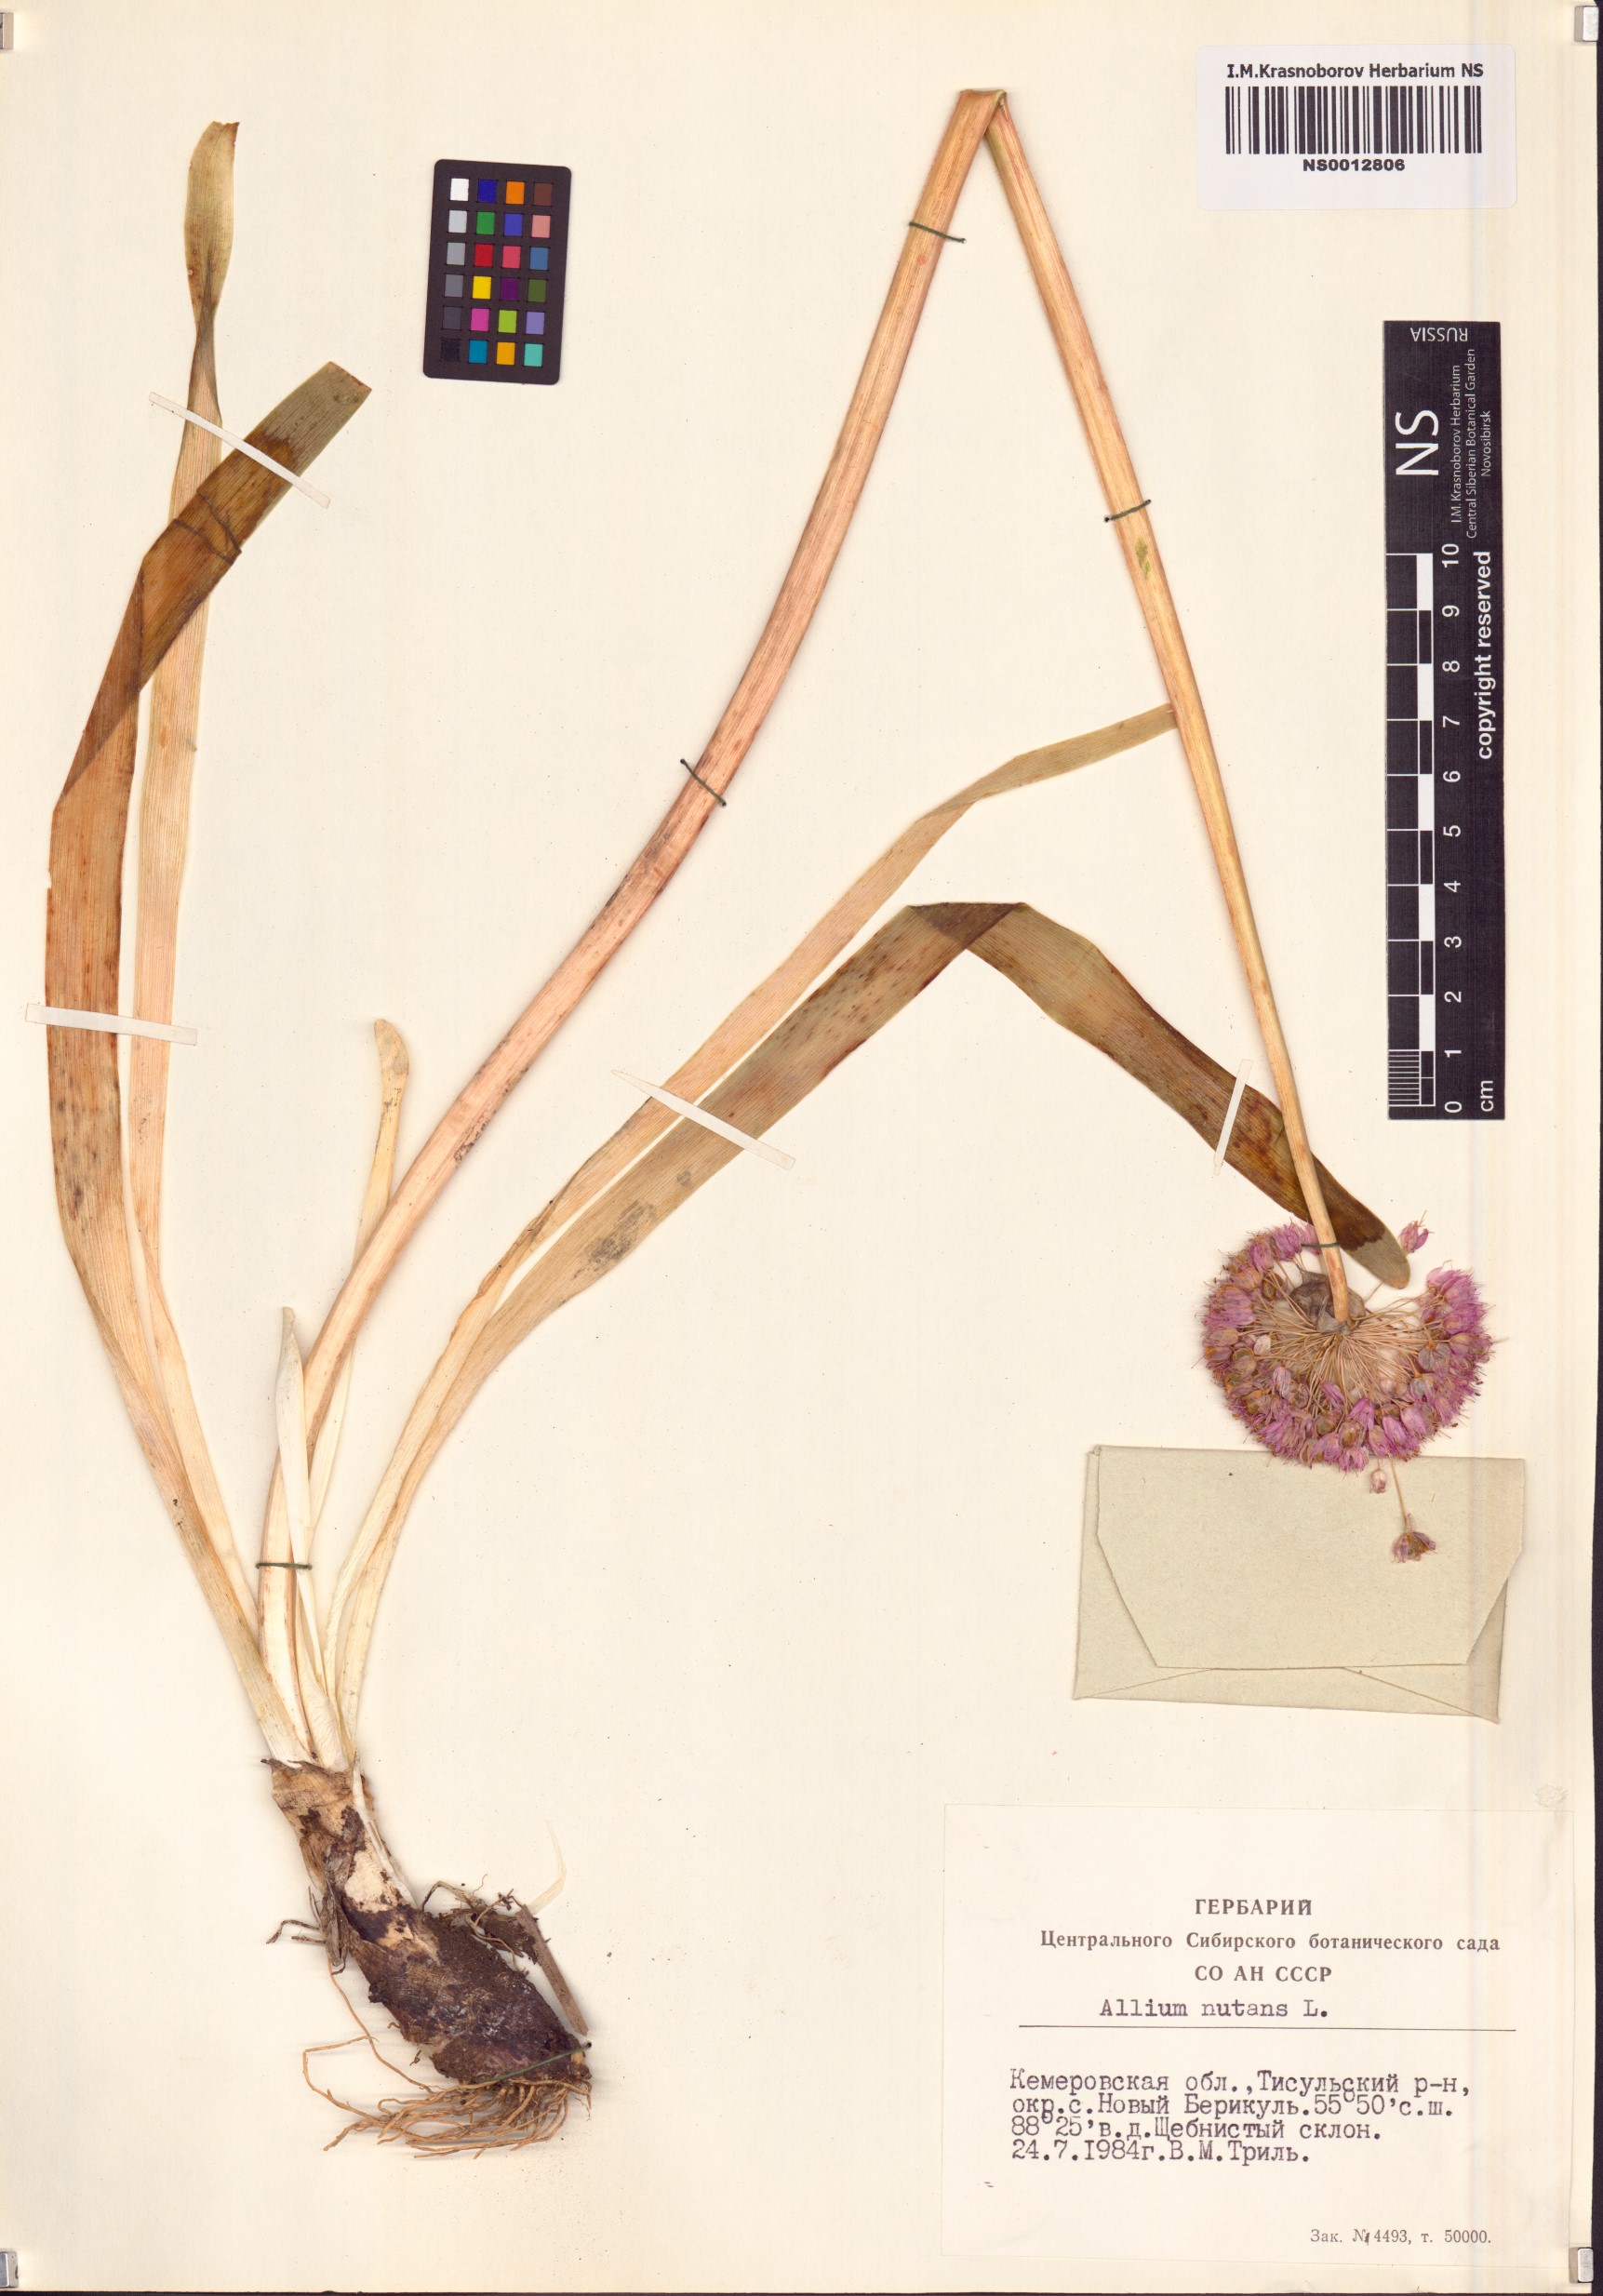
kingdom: Plantae
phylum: Tracheophyta
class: Liliopsida
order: Asparagales
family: Amaryllidaceae
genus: Allium
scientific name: Allium nutans
